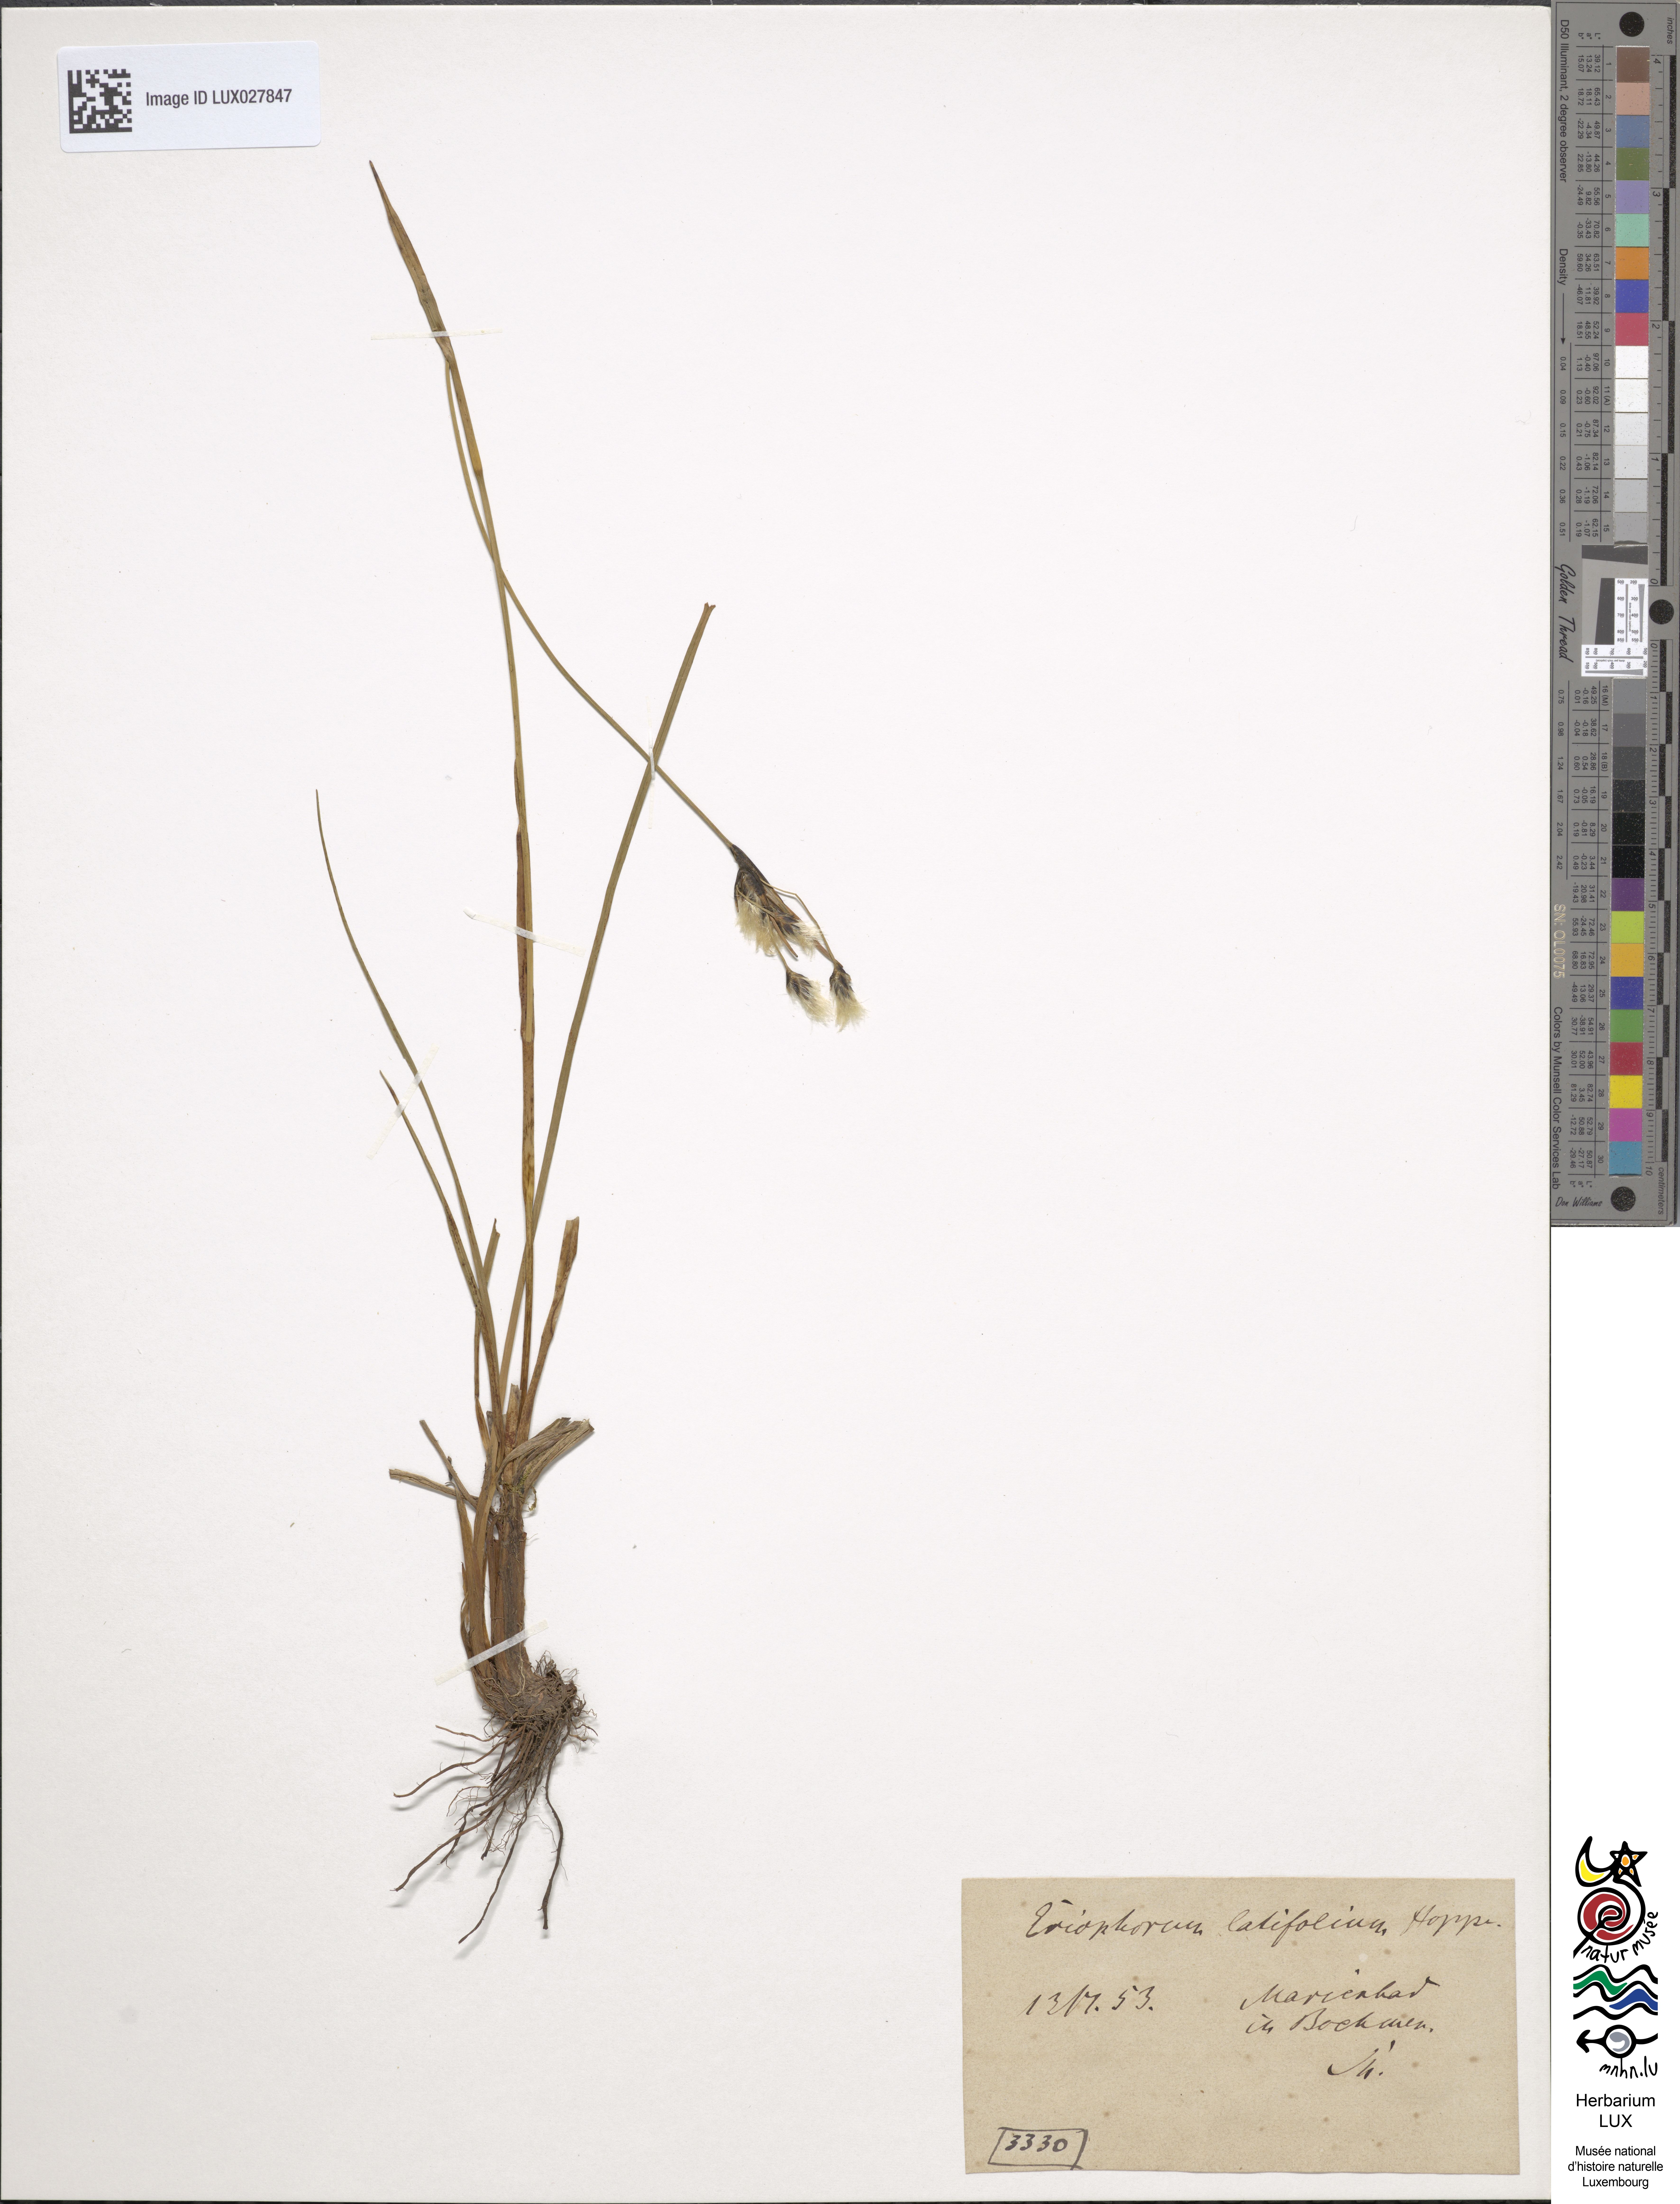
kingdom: Plantae
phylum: Tracheophyta
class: Liliopsida
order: Poales
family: Cyperaceae
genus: Eriophorum
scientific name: Eriophorum latifolium
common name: Broad-leaved cottongrass
